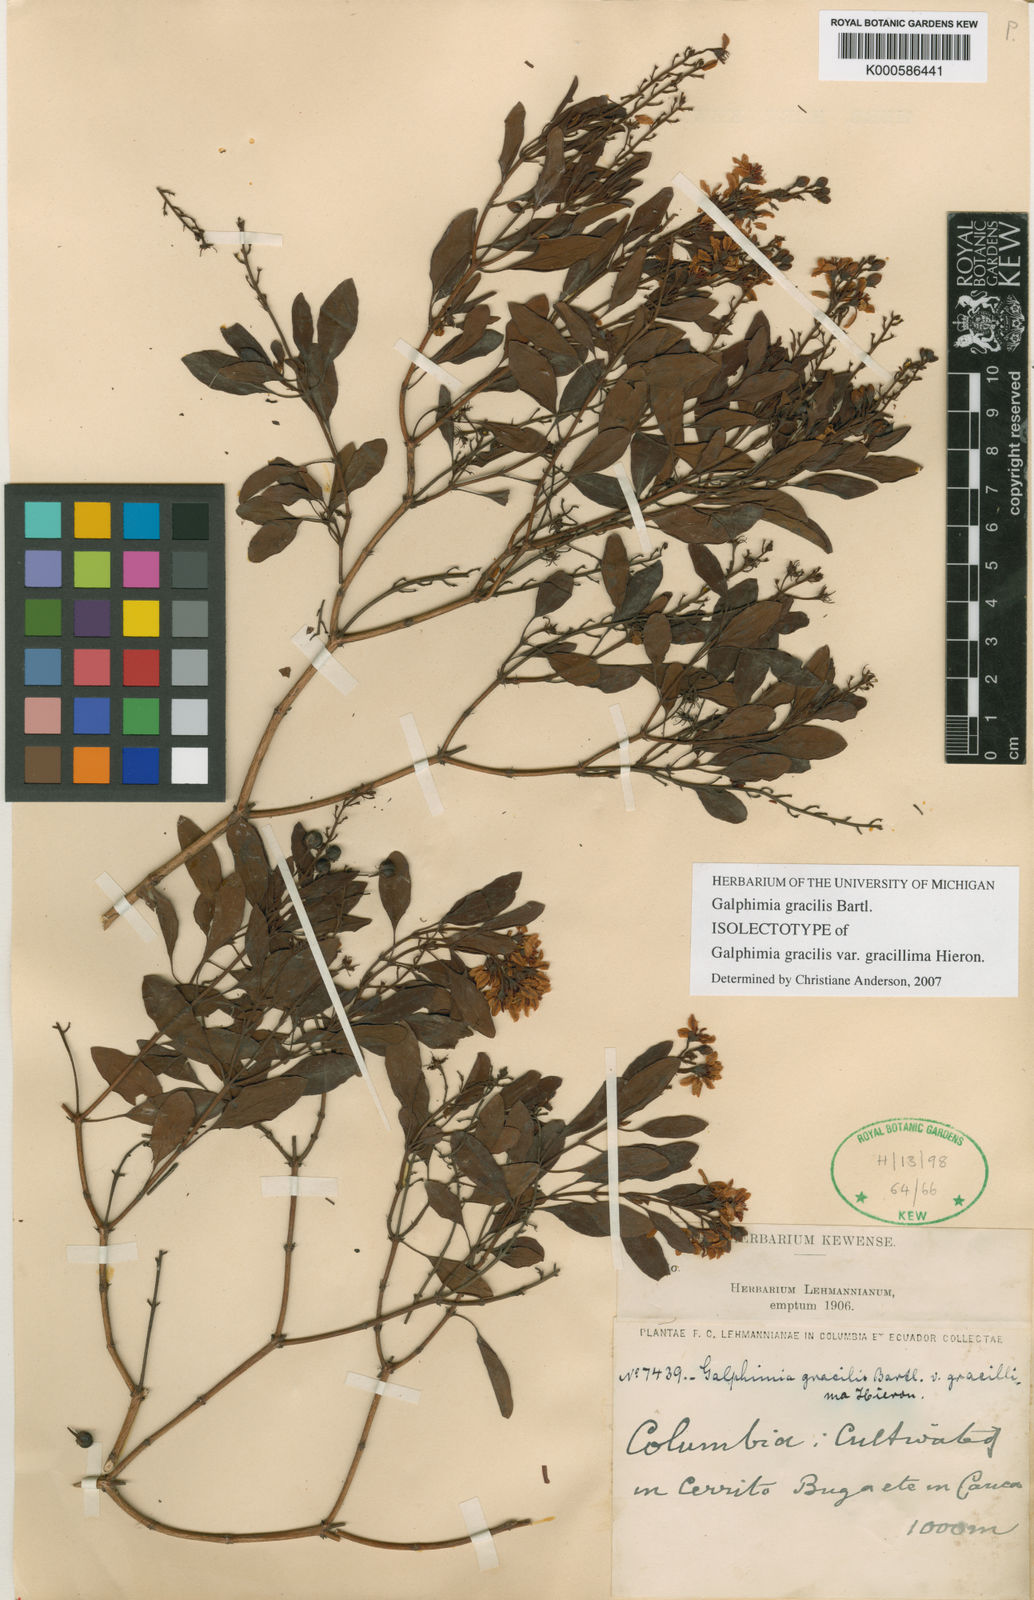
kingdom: Plantae
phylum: Tracheophyta
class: Magnoliopsida
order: Malpighiales
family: Malpighiaceae
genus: Galphimia
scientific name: Galphimia gracilis
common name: Slender goldshower
